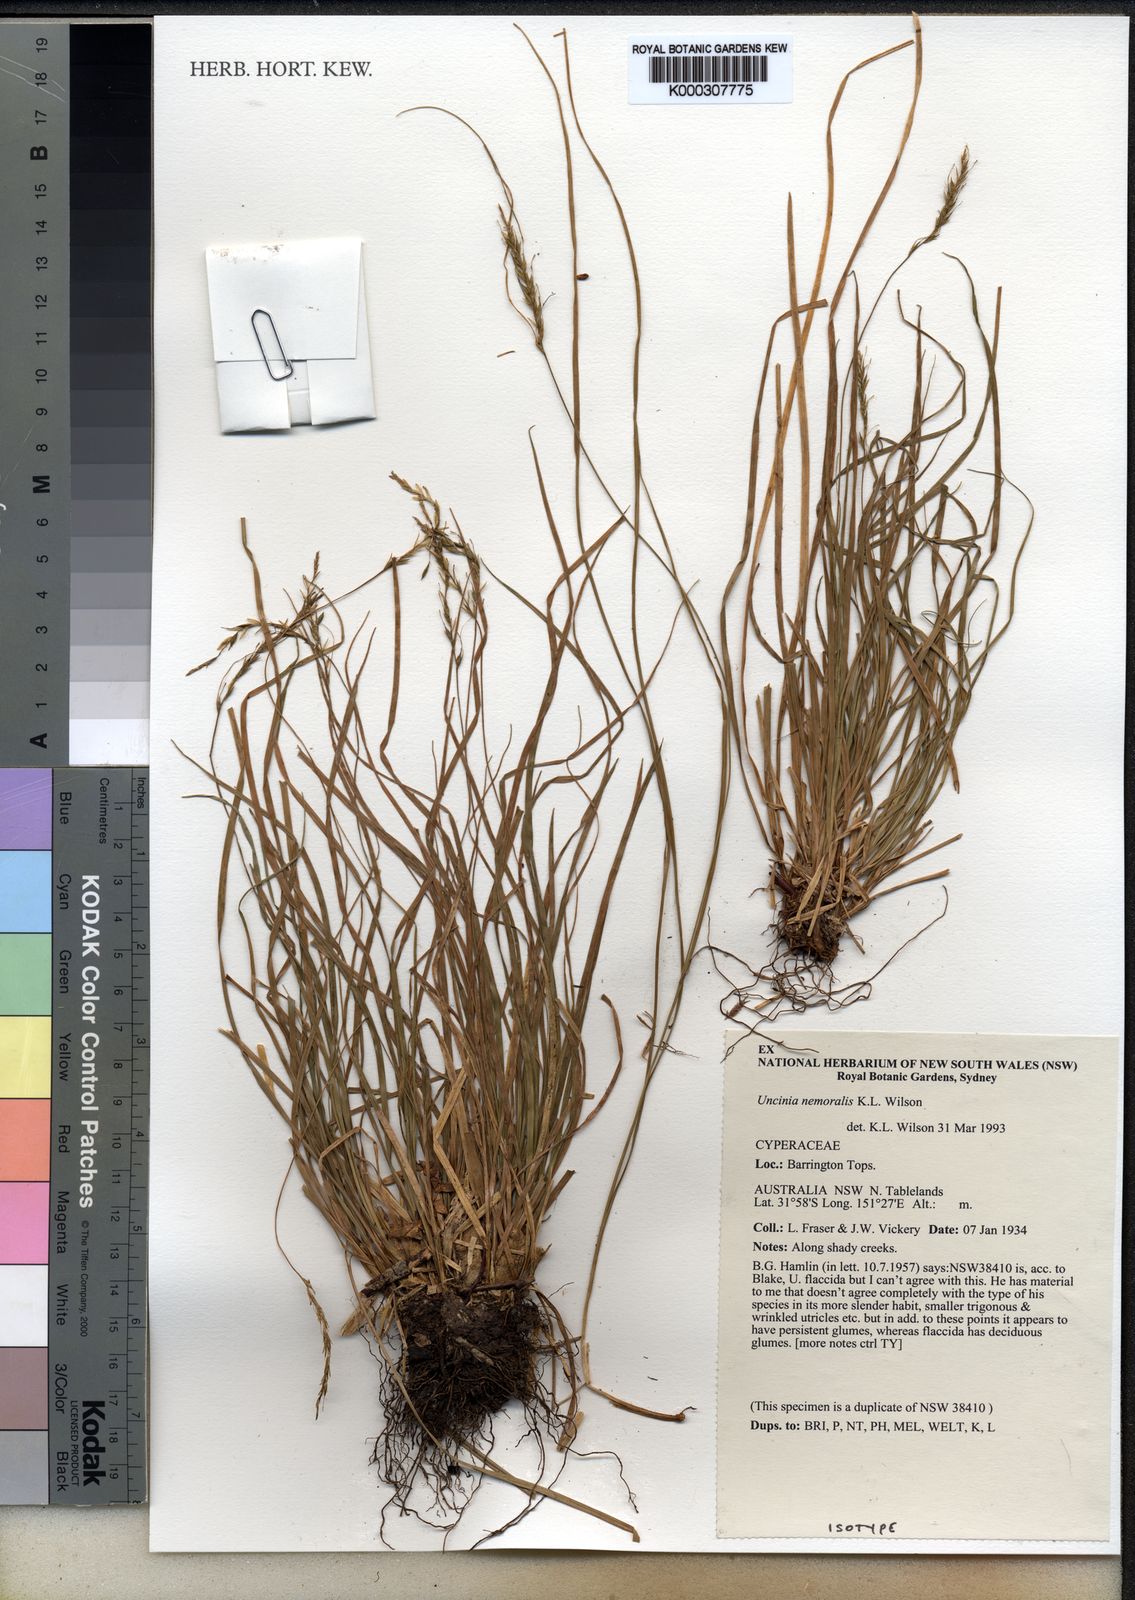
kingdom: Plantae
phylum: Tracheophyta
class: Liliopsida
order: Poales
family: Cyperaceae
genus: Carex
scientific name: Carex nemoralis
